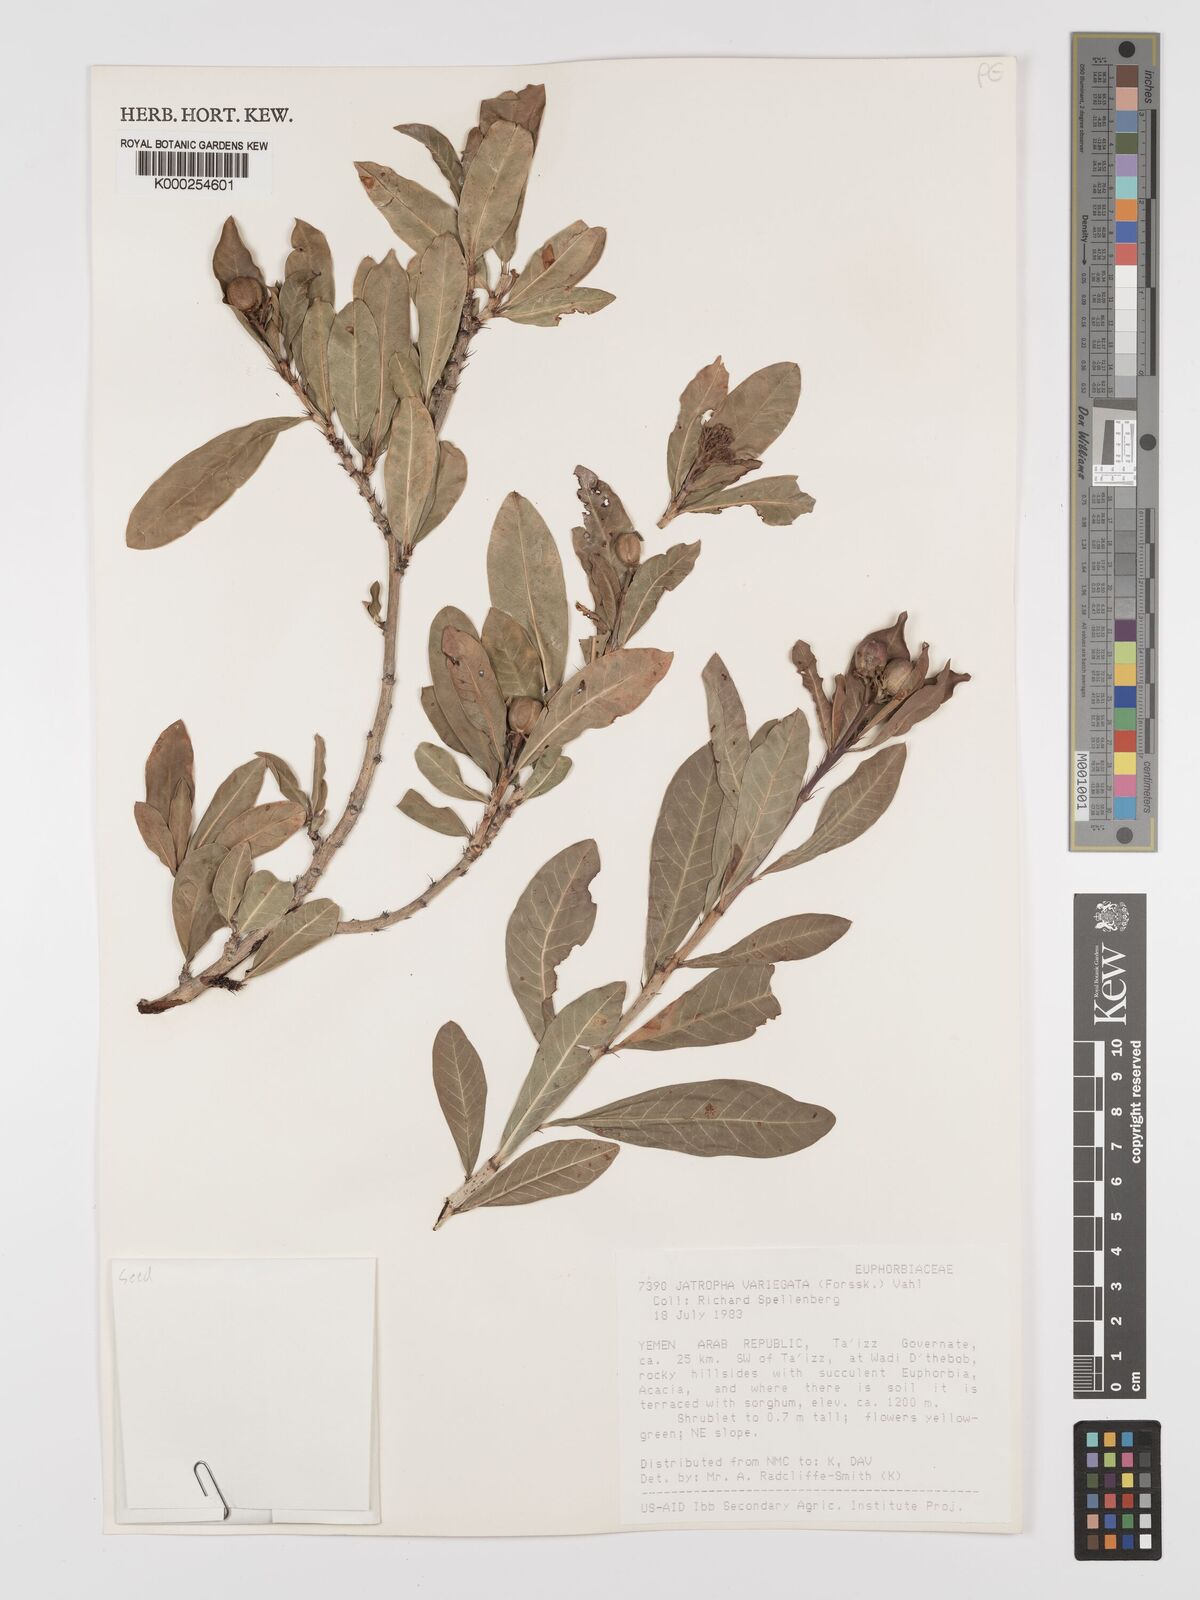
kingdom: Plantae
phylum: Tracheophyta
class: Magnoliopsida
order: Malpighiales
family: Euphorbiaceae
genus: Jatropha
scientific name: Jatropha variegata
